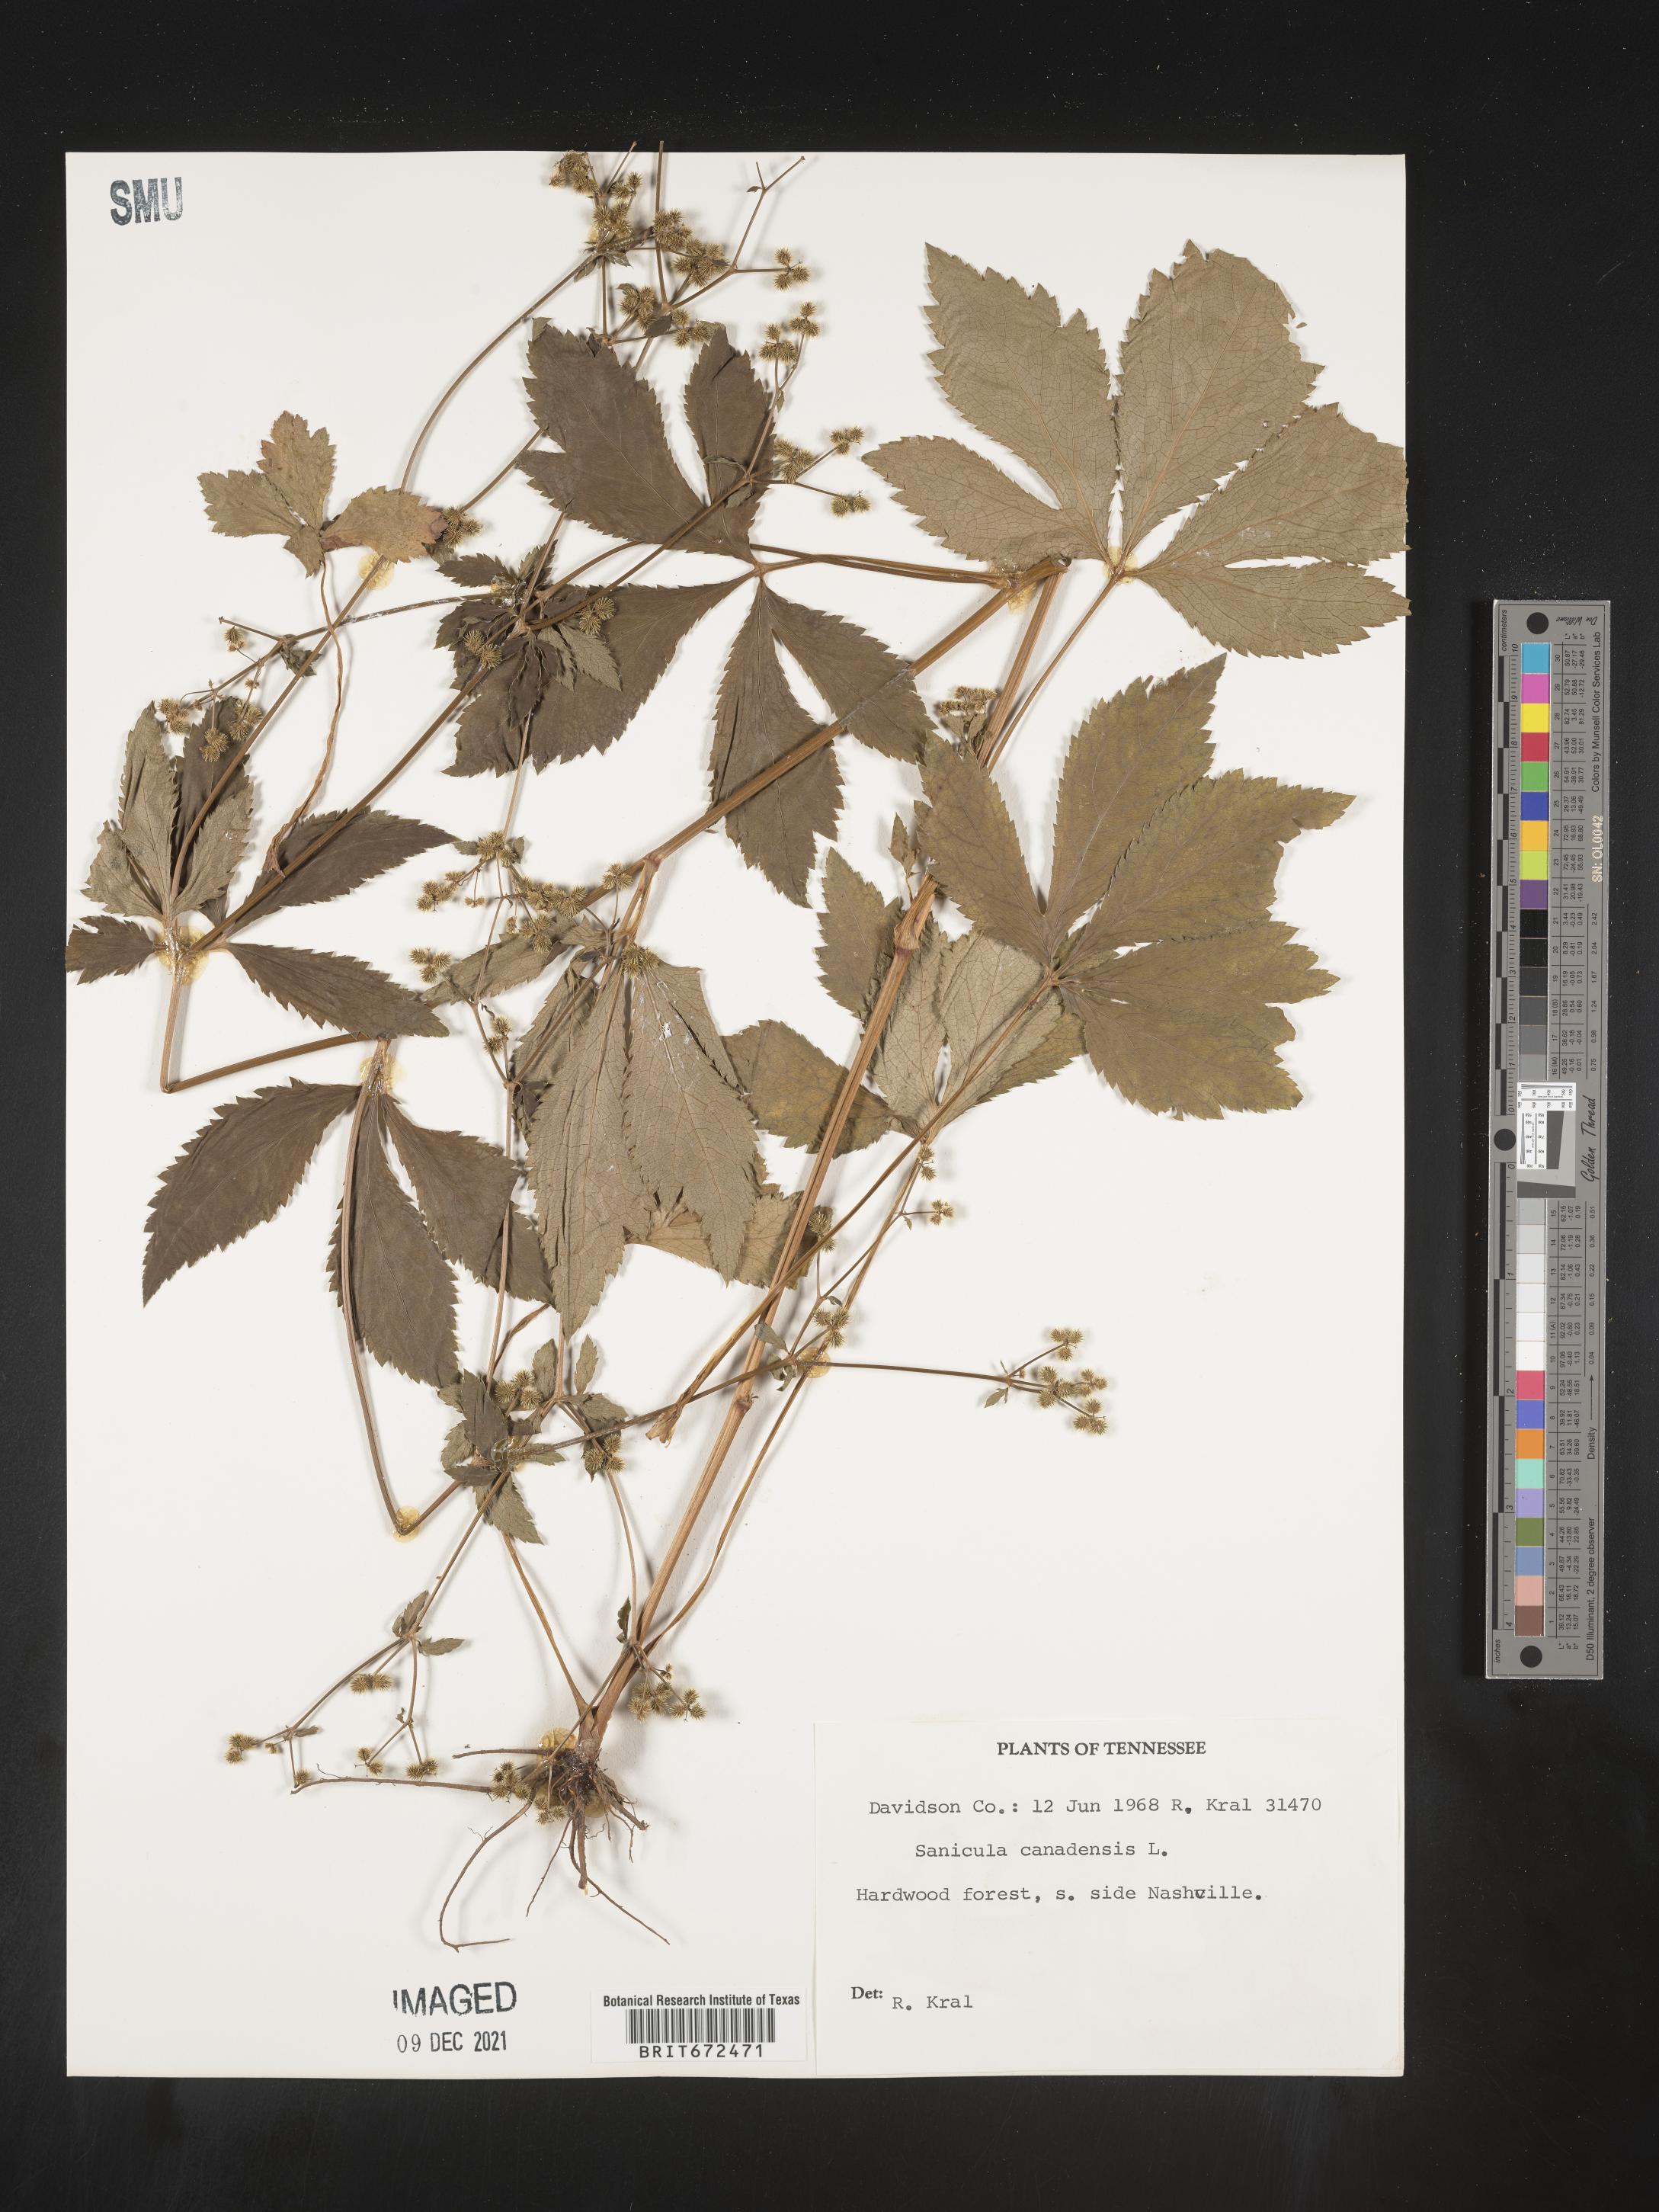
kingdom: Plantae
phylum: Tracheophyta
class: Magnoliopsida
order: Apiales
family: Apiaceae
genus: Sanicula
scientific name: Sanicula canadensis
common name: Canada sanicle
